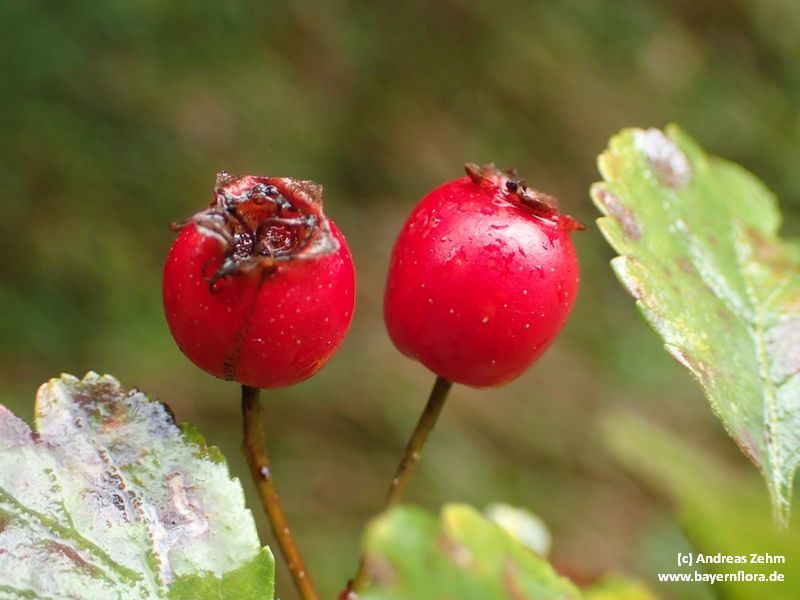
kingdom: Plantae
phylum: Tracheophyta
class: Magnoliopsida
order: Rosales
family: Rosaceae
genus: Crataegus
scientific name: Crataegus laevigata
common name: Midland hawthorn
